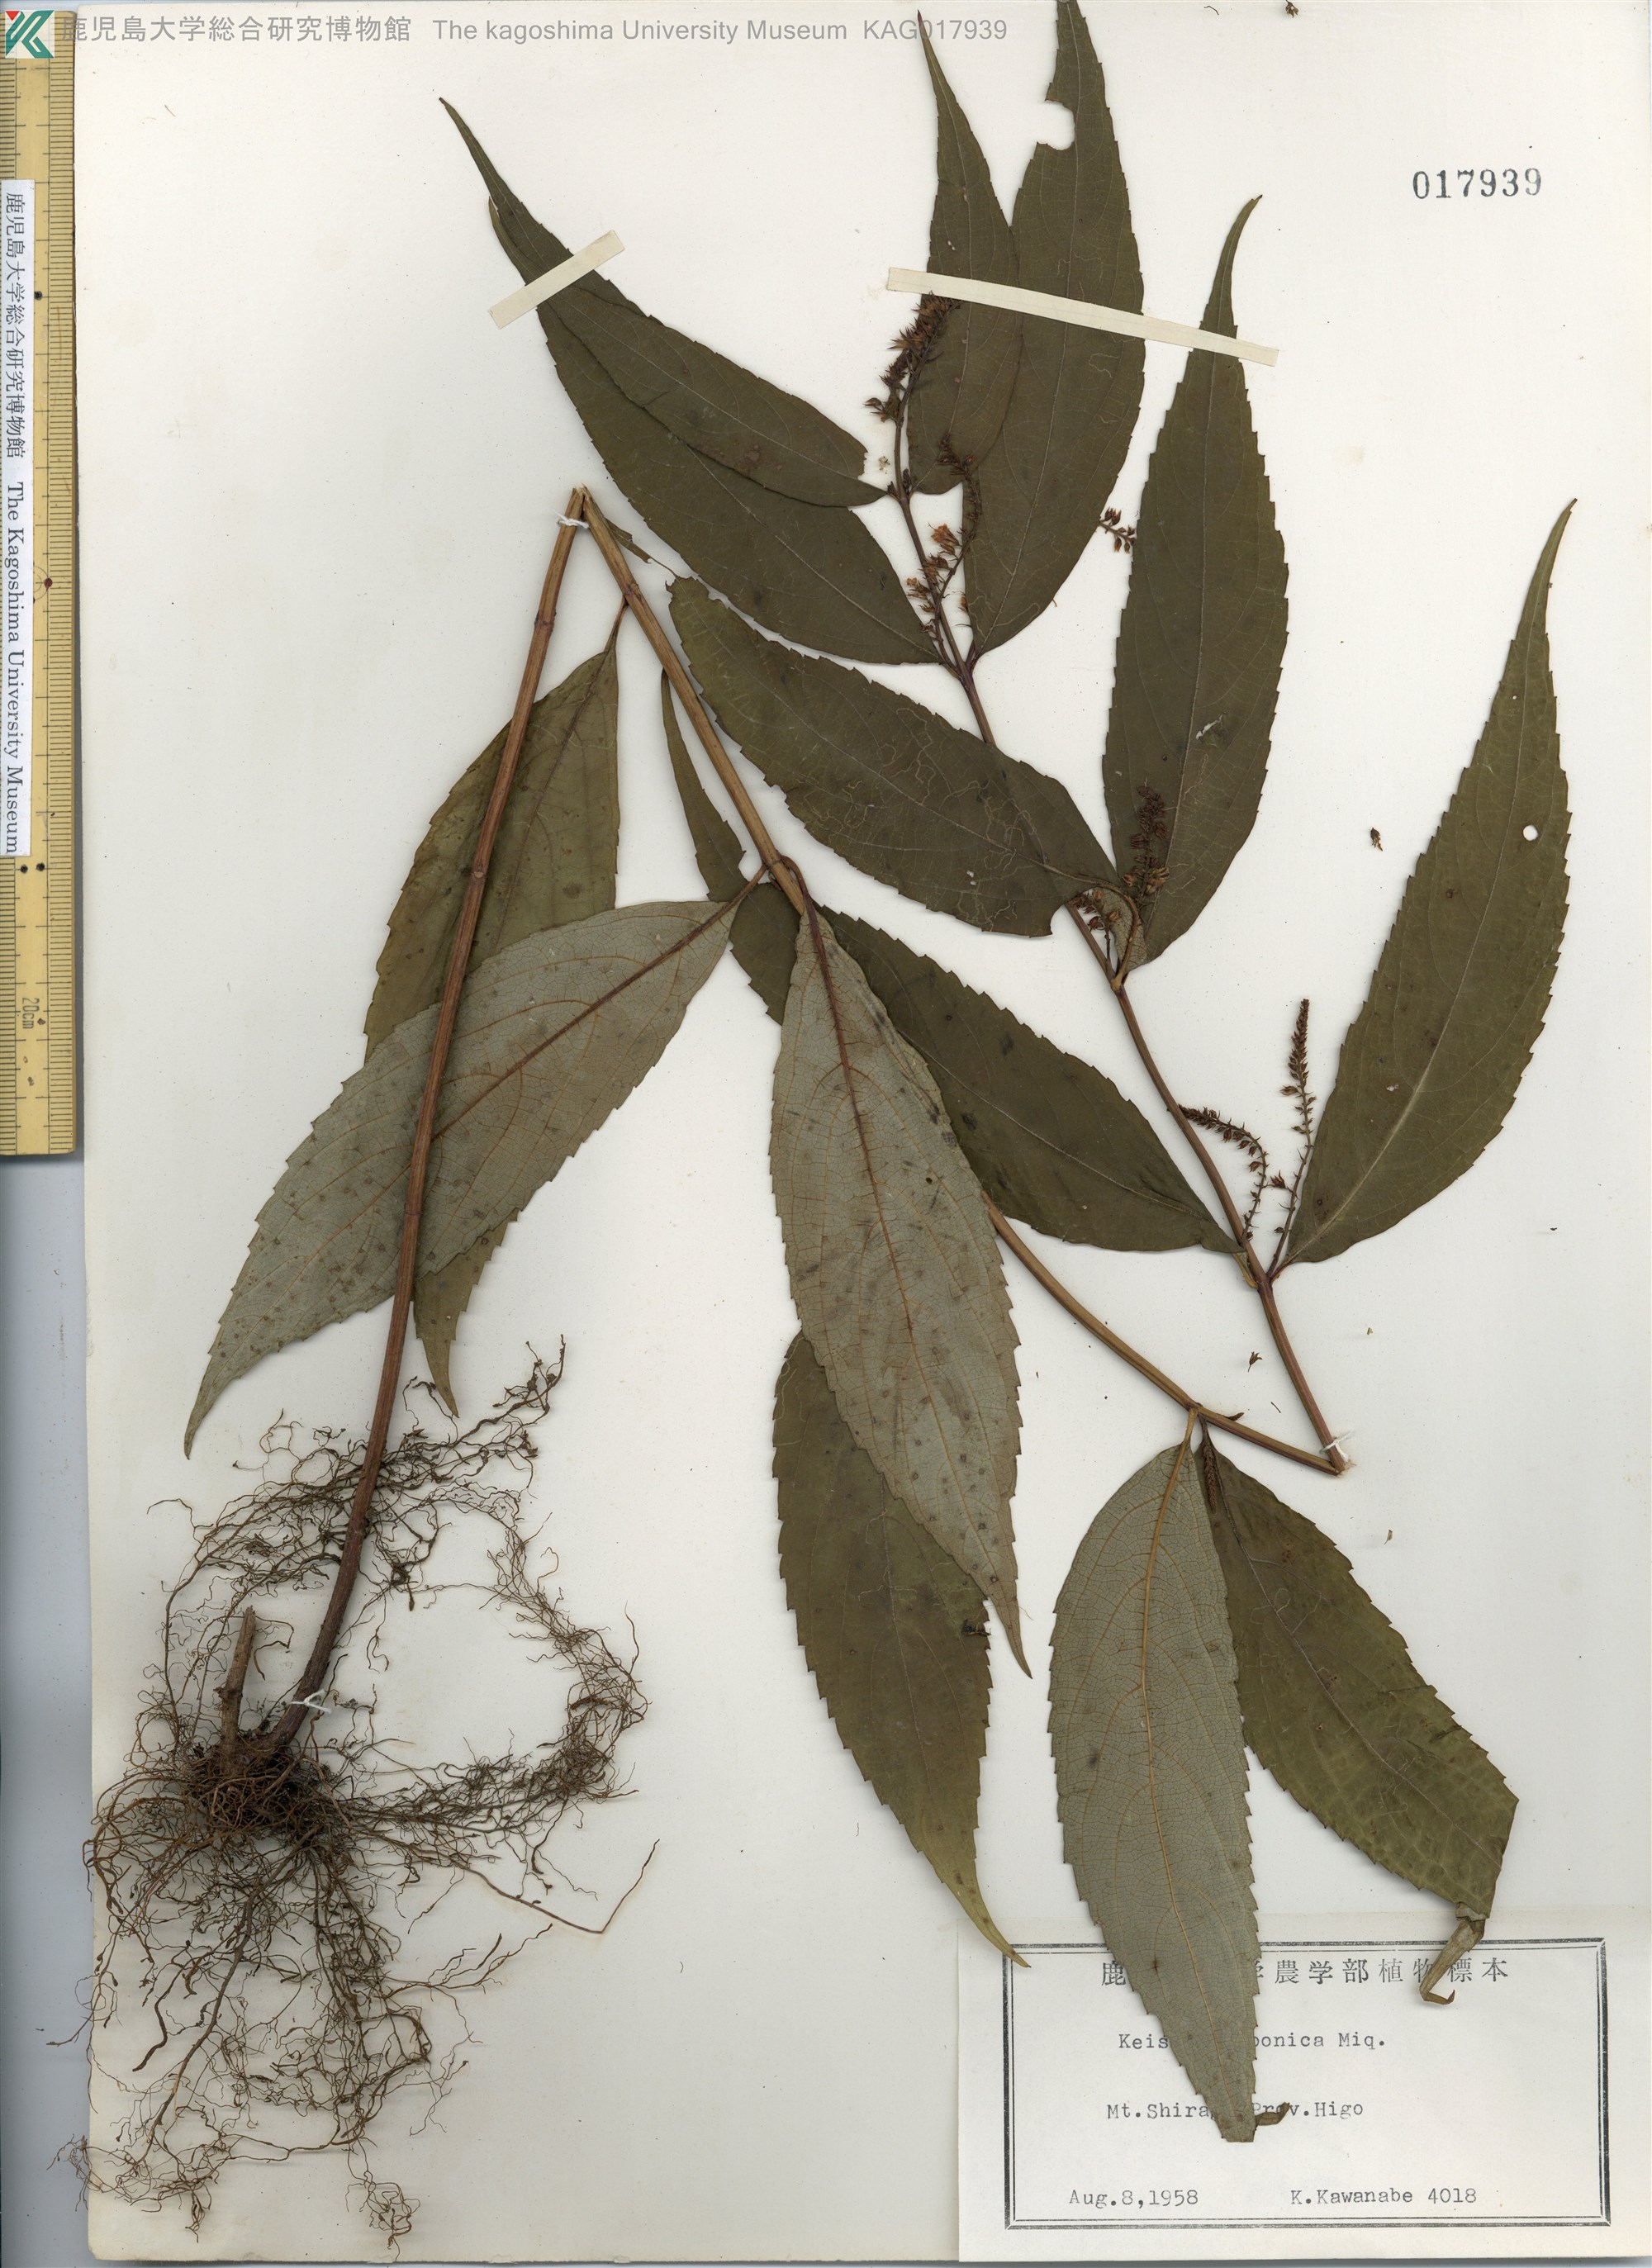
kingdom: Plantae
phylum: Tracheophyta
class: Magnoliopsida
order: Lamiales
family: Lamiaceae
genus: Collinsonia
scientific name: Collinsonia japonica
